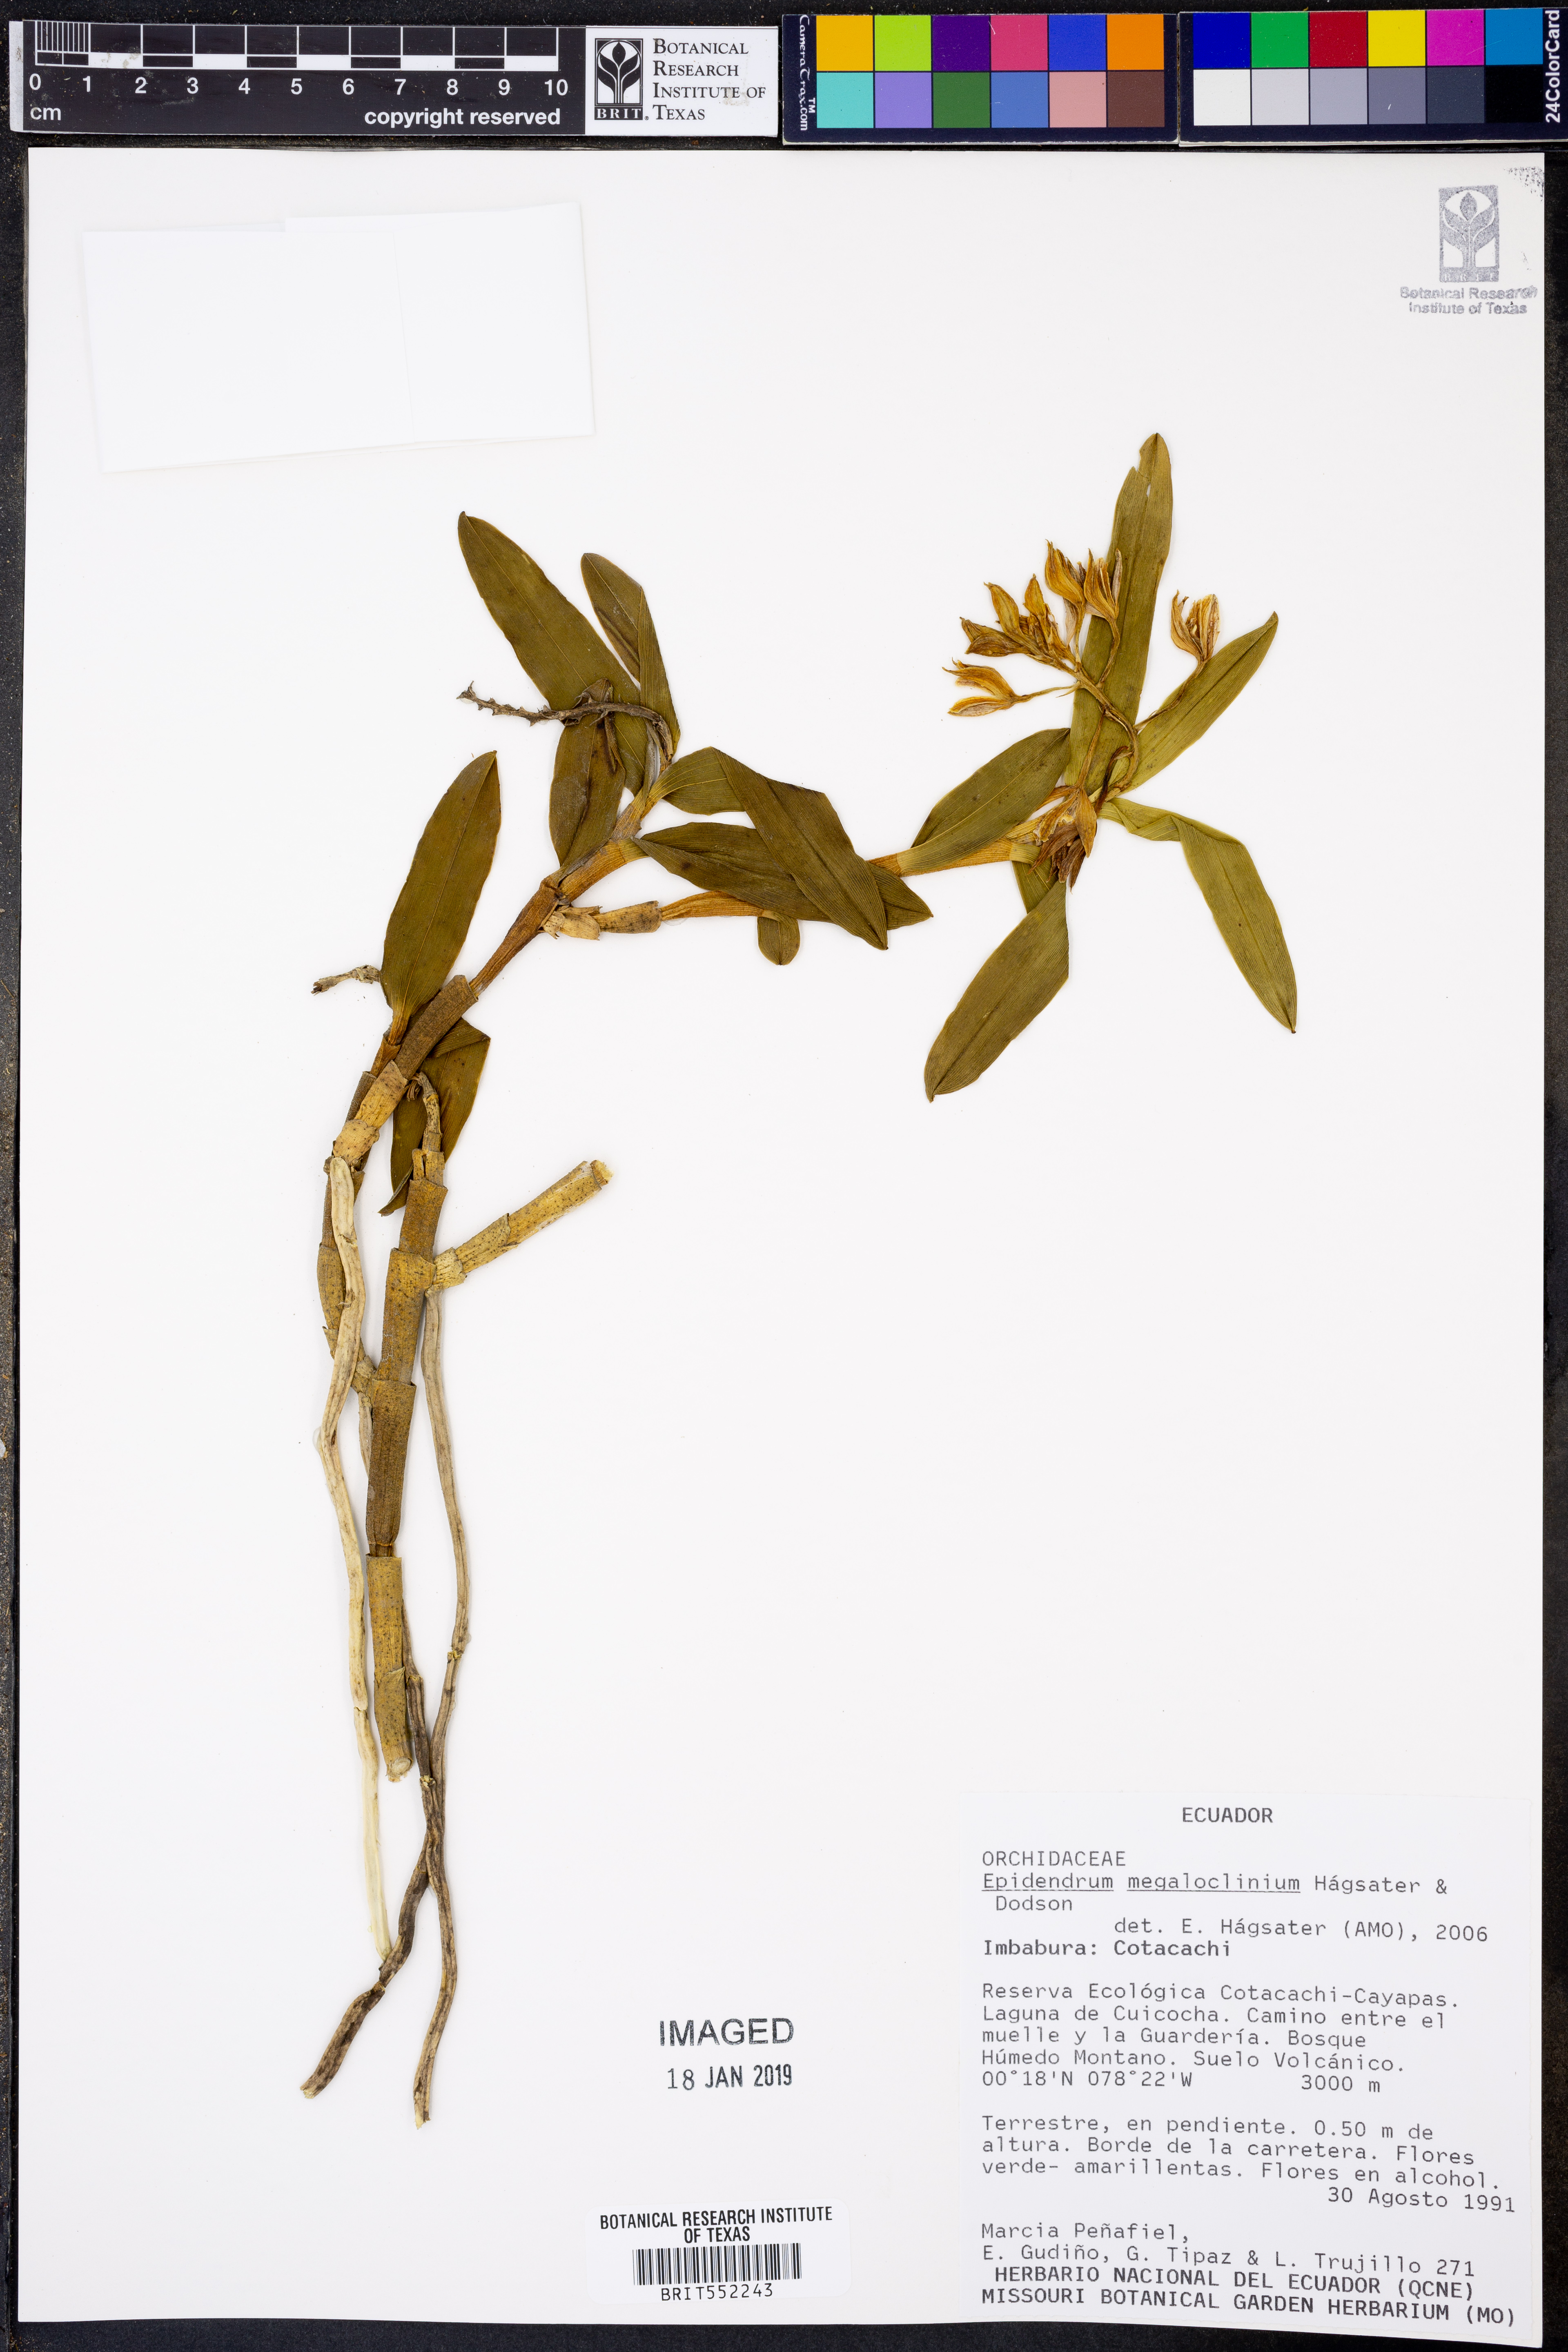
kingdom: Plantae
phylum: Tracheophyta
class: Liliopsida
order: Asparagales
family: Orchidaceae
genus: Epidendrum
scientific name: Epidendrum megaloclinium
